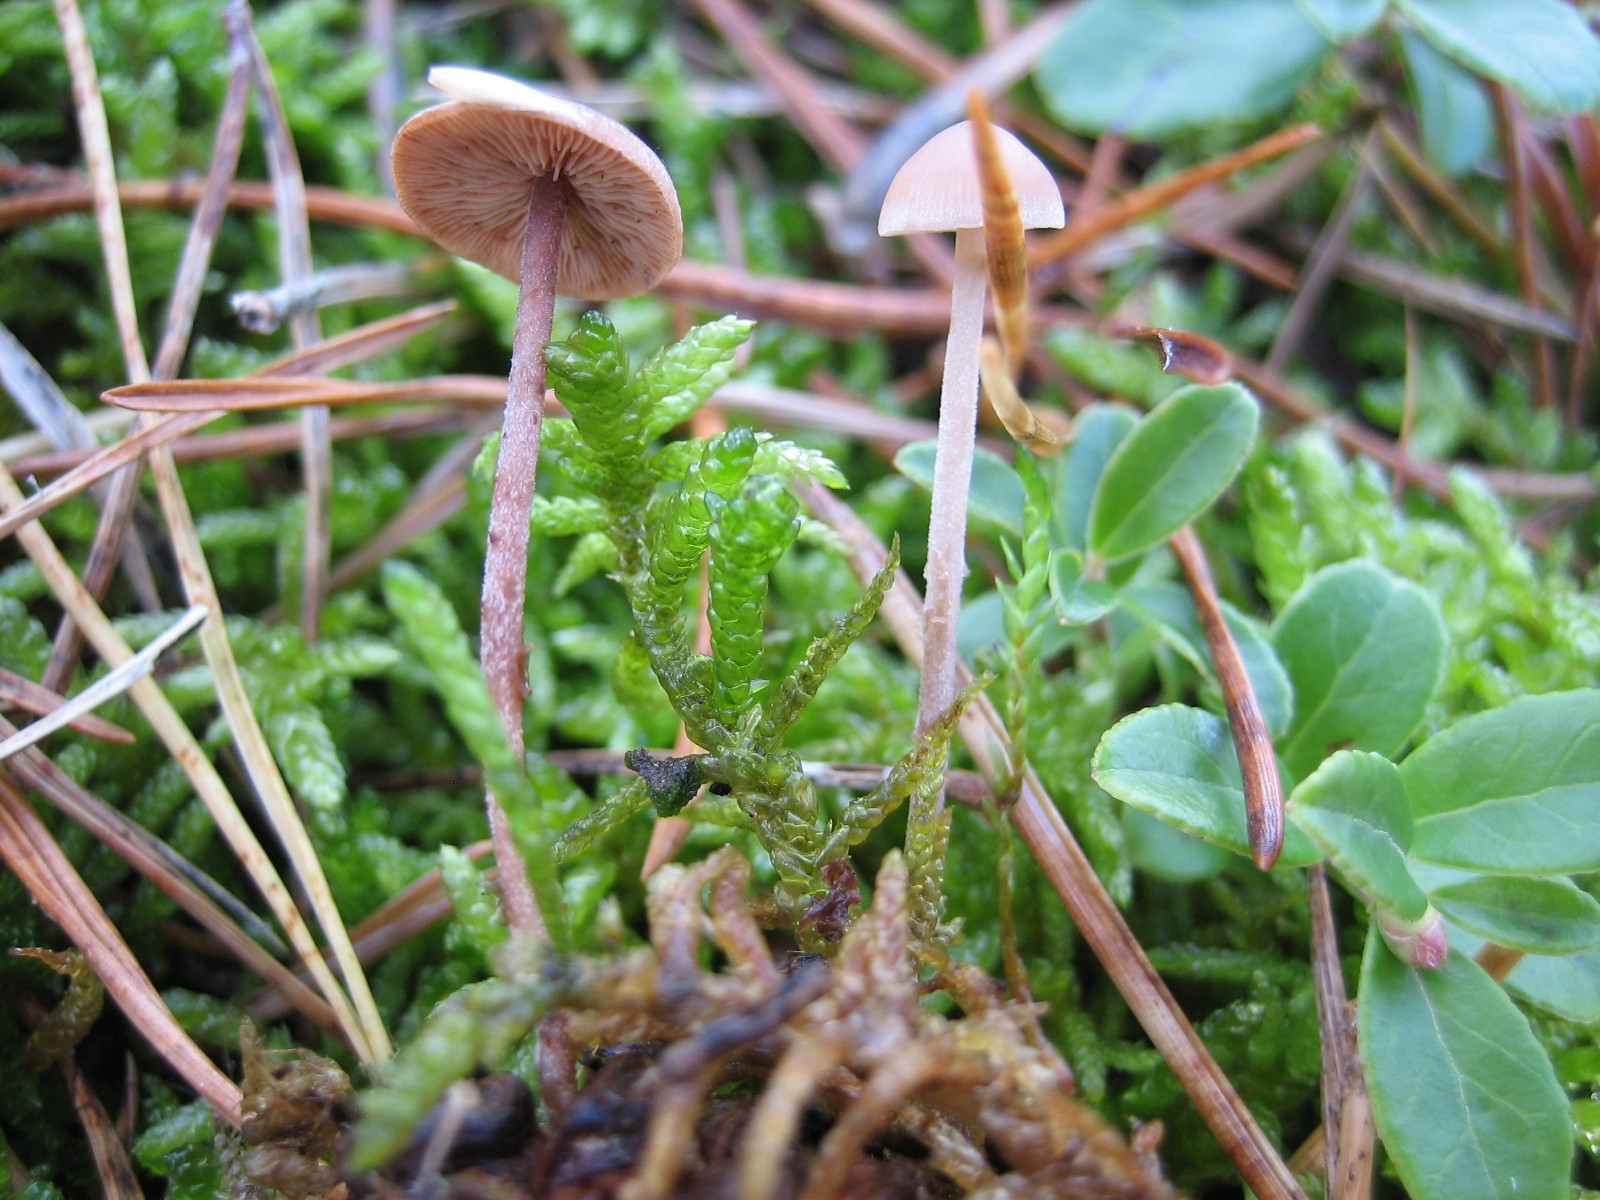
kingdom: Fungi
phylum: Basidiomycota
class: Agaricomycetes
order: Agaricales
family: Marasmiaceae
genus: Baeospora
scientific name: Baeospora myosura
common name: koglebruskhat
